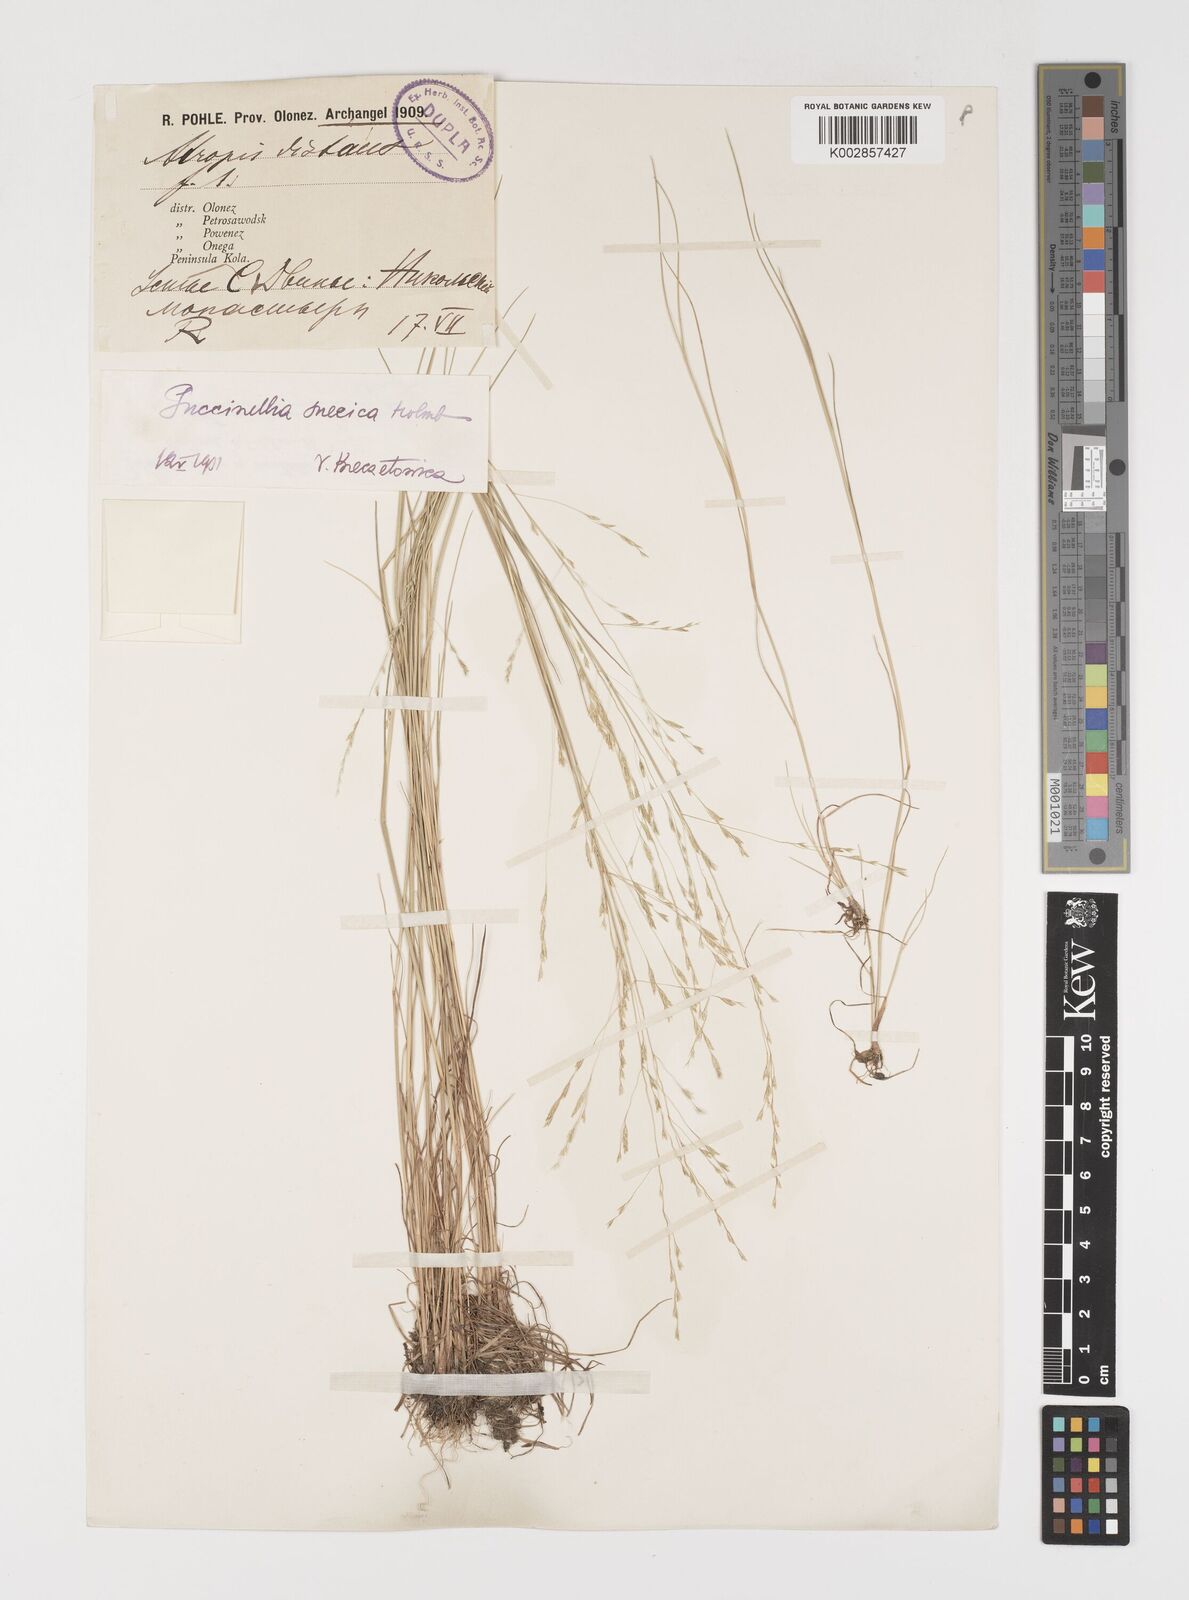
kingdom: Plantae
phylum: Tracheophyta
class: Liliopsida
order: Poales
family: Poaceae
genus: Puccinellia
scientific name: Puccinellia distans
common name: Weeping alkaligrass
